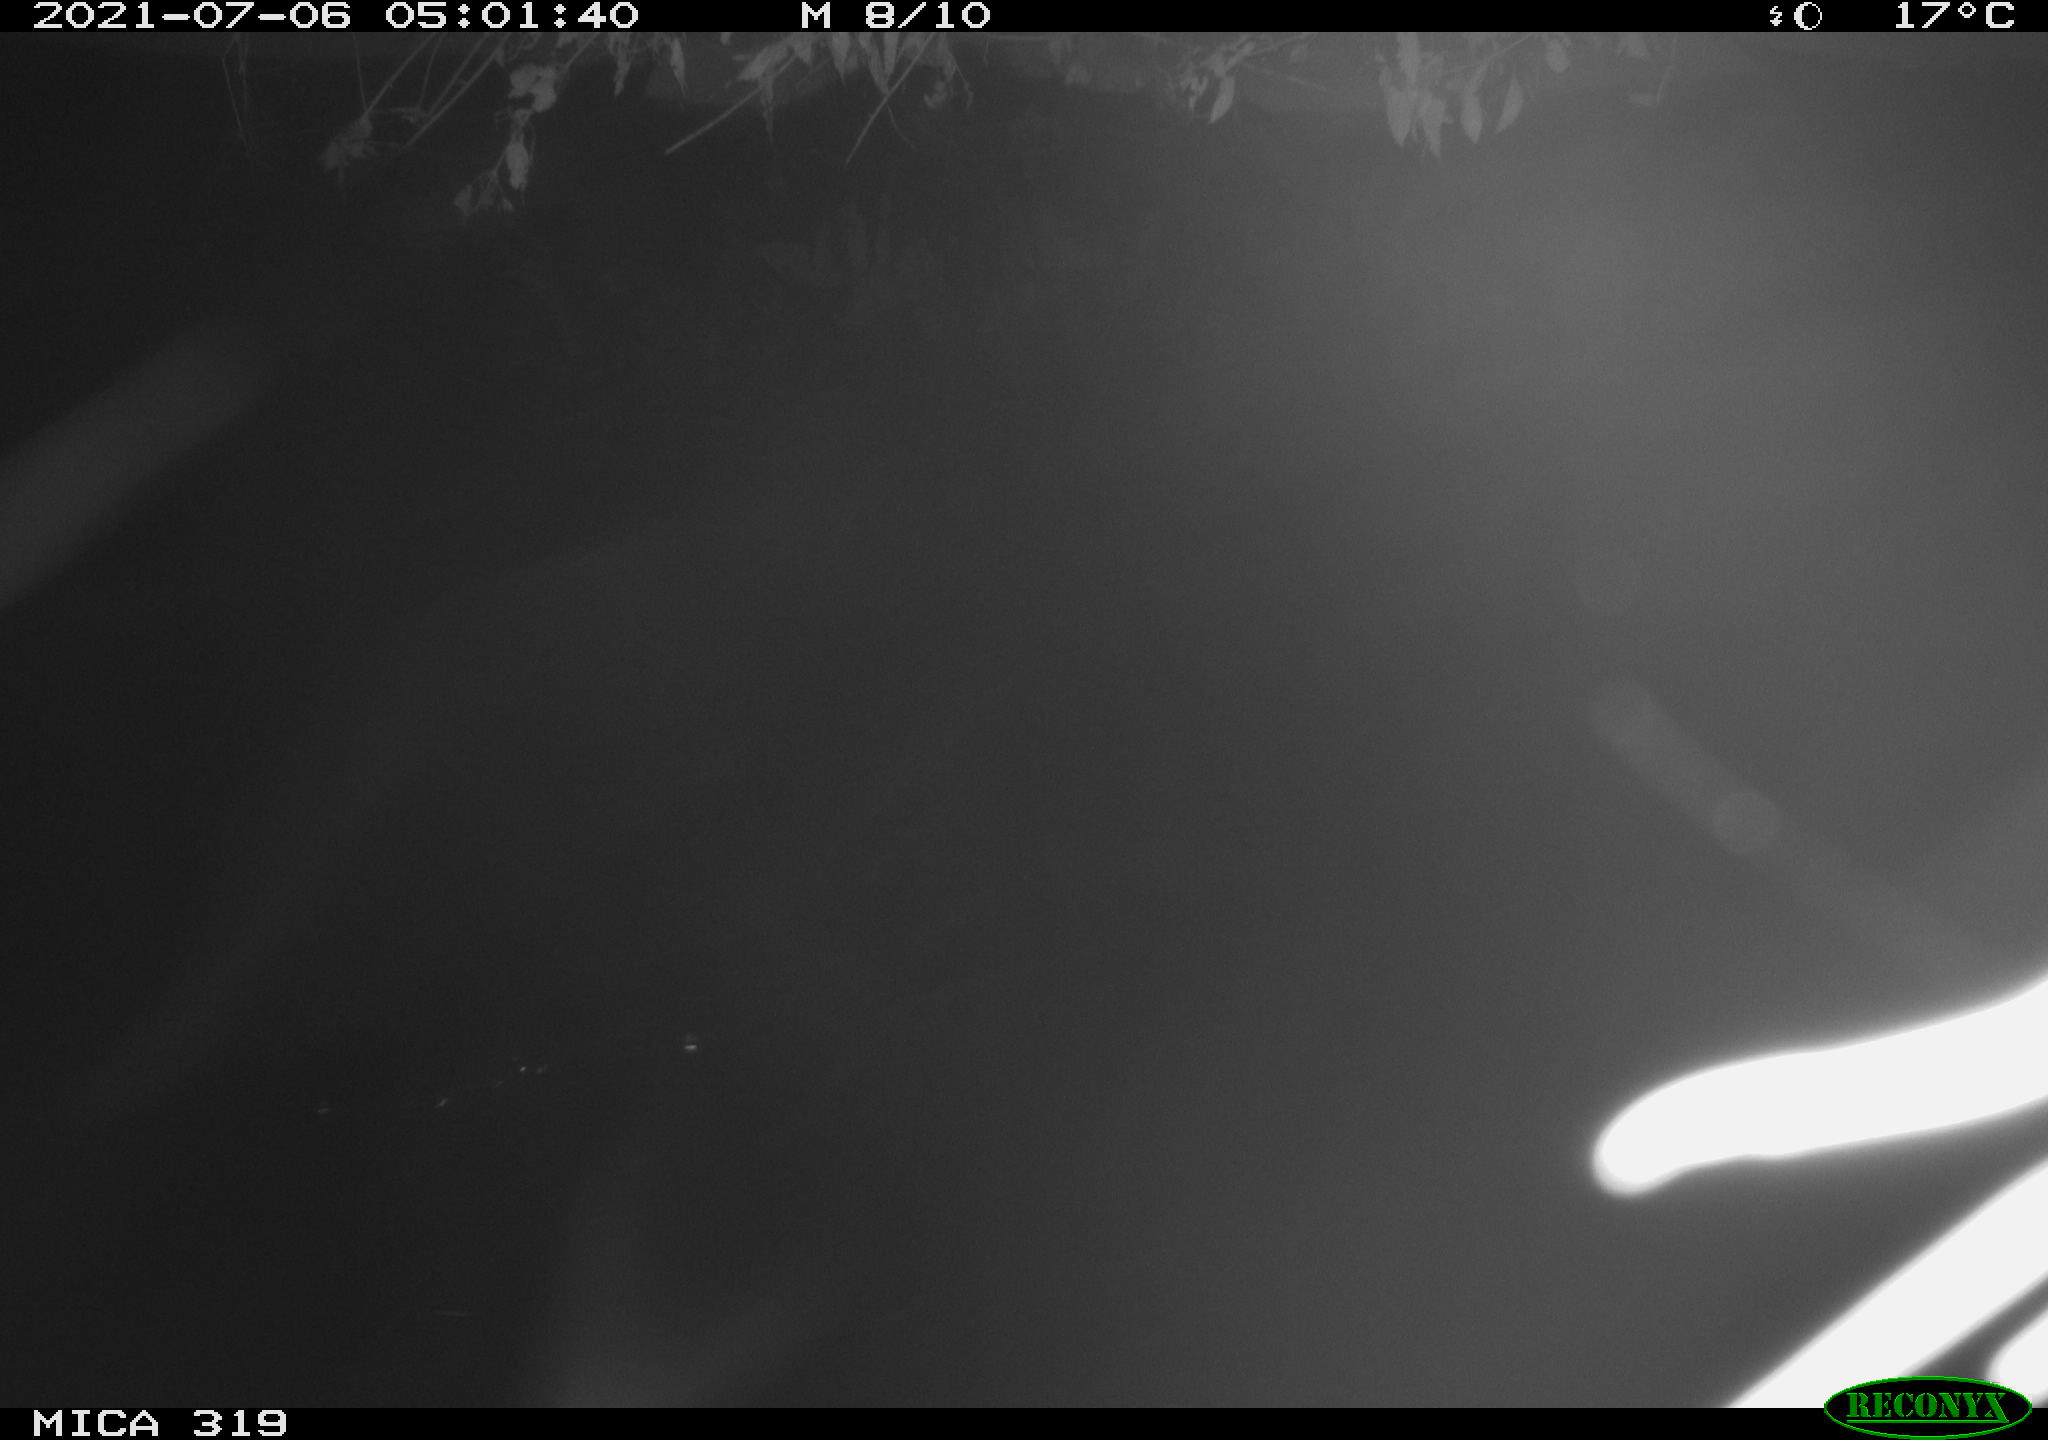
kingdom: Animalia
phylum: Chordata
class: Aves
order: Anseriformes
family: Anatidae
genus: Anas
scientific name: Anas platyrhynchos
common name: Mallard
